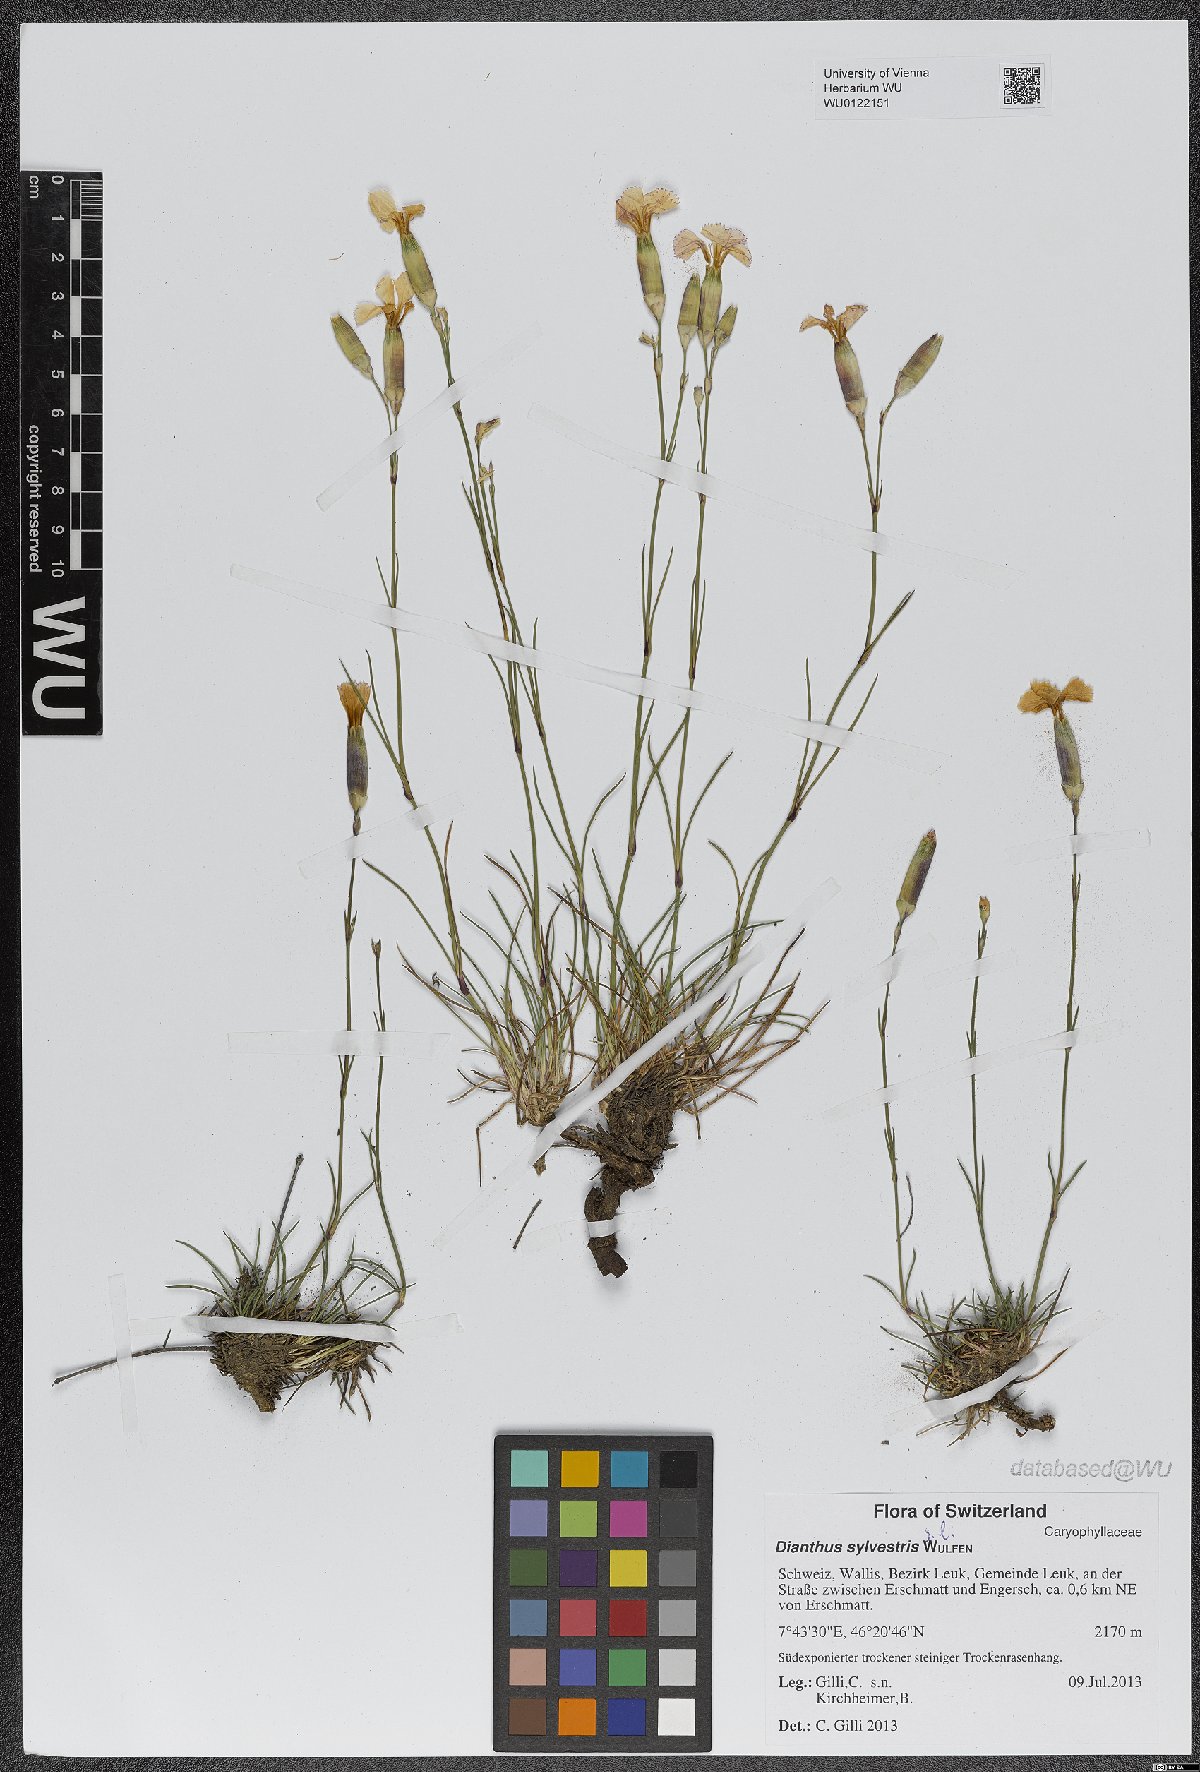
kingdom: Plantae
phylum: Tracheophyta
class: Magnoliopsida
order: Caryophyllales
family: Caryophyllaceae
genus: Dianthus
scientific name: Dianthus sylvestris
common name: Wood pink
